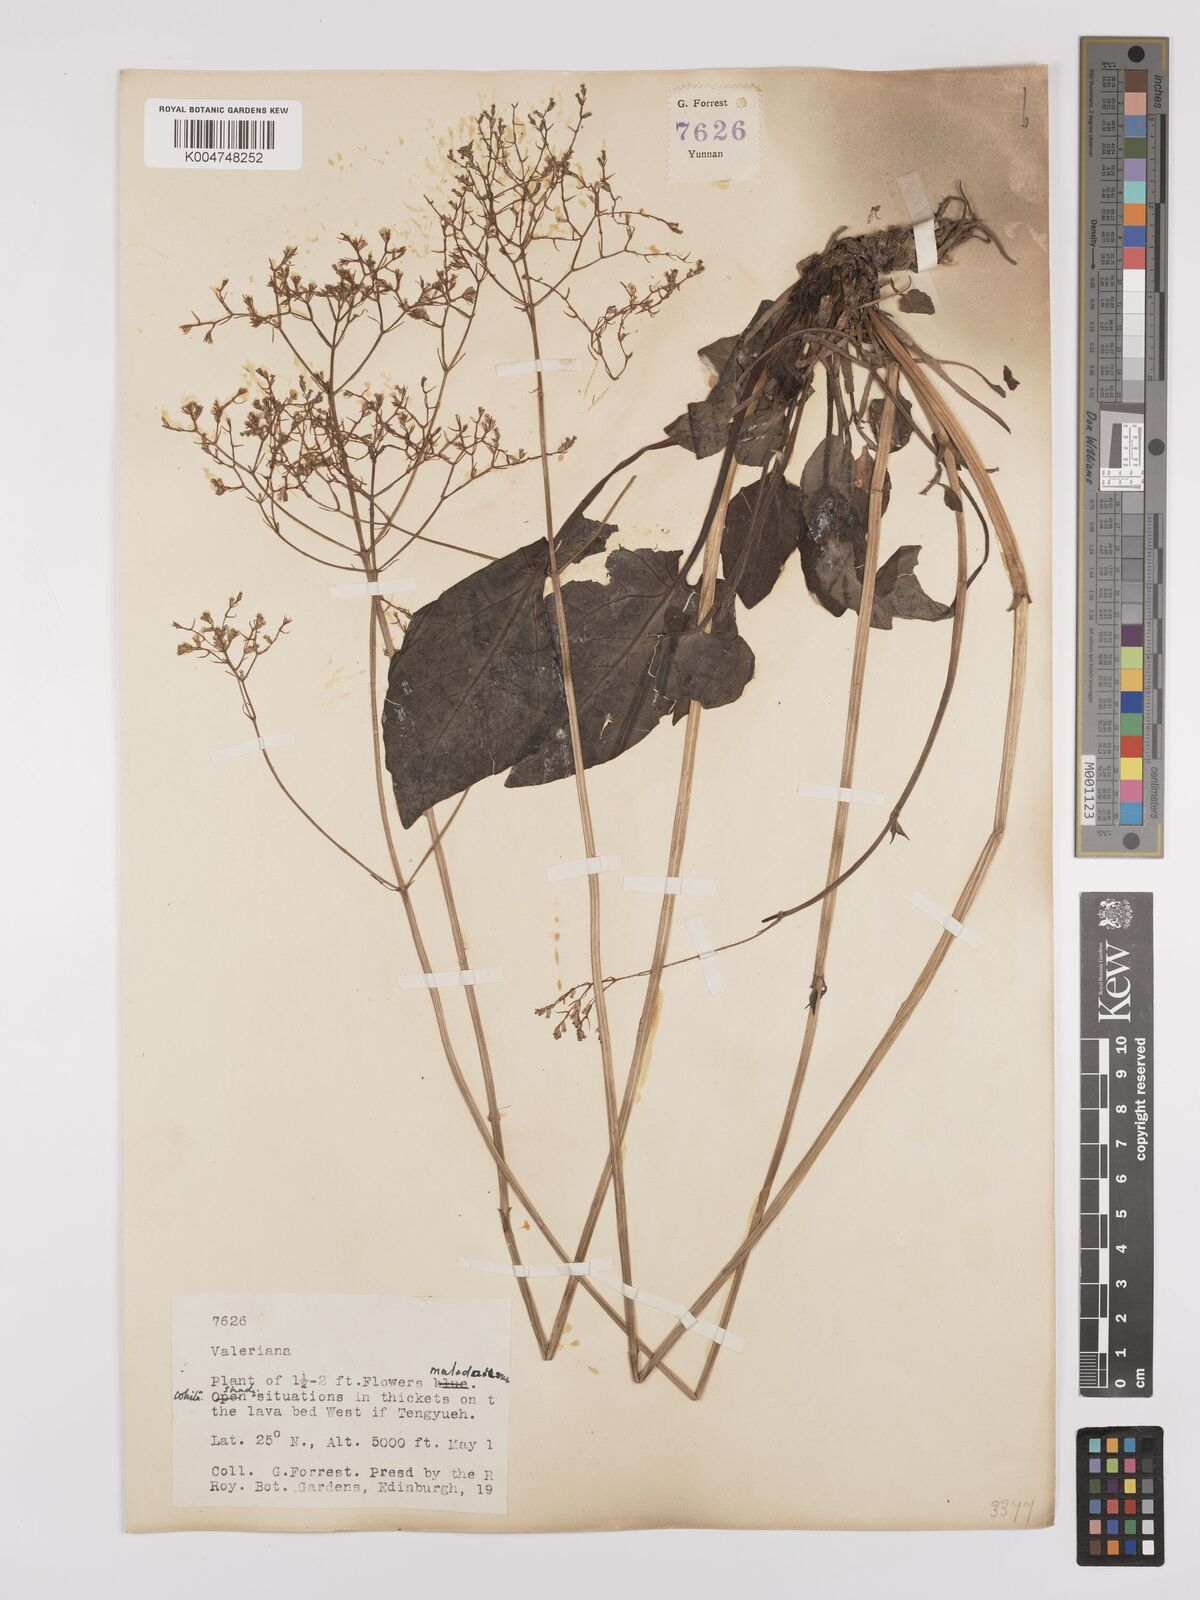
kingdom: Plantae
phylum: Tracheophyta
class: Magnoliopsida
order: Dipsacales
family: Caprifoliaceae
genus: Valeriana
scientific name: Valeriana
